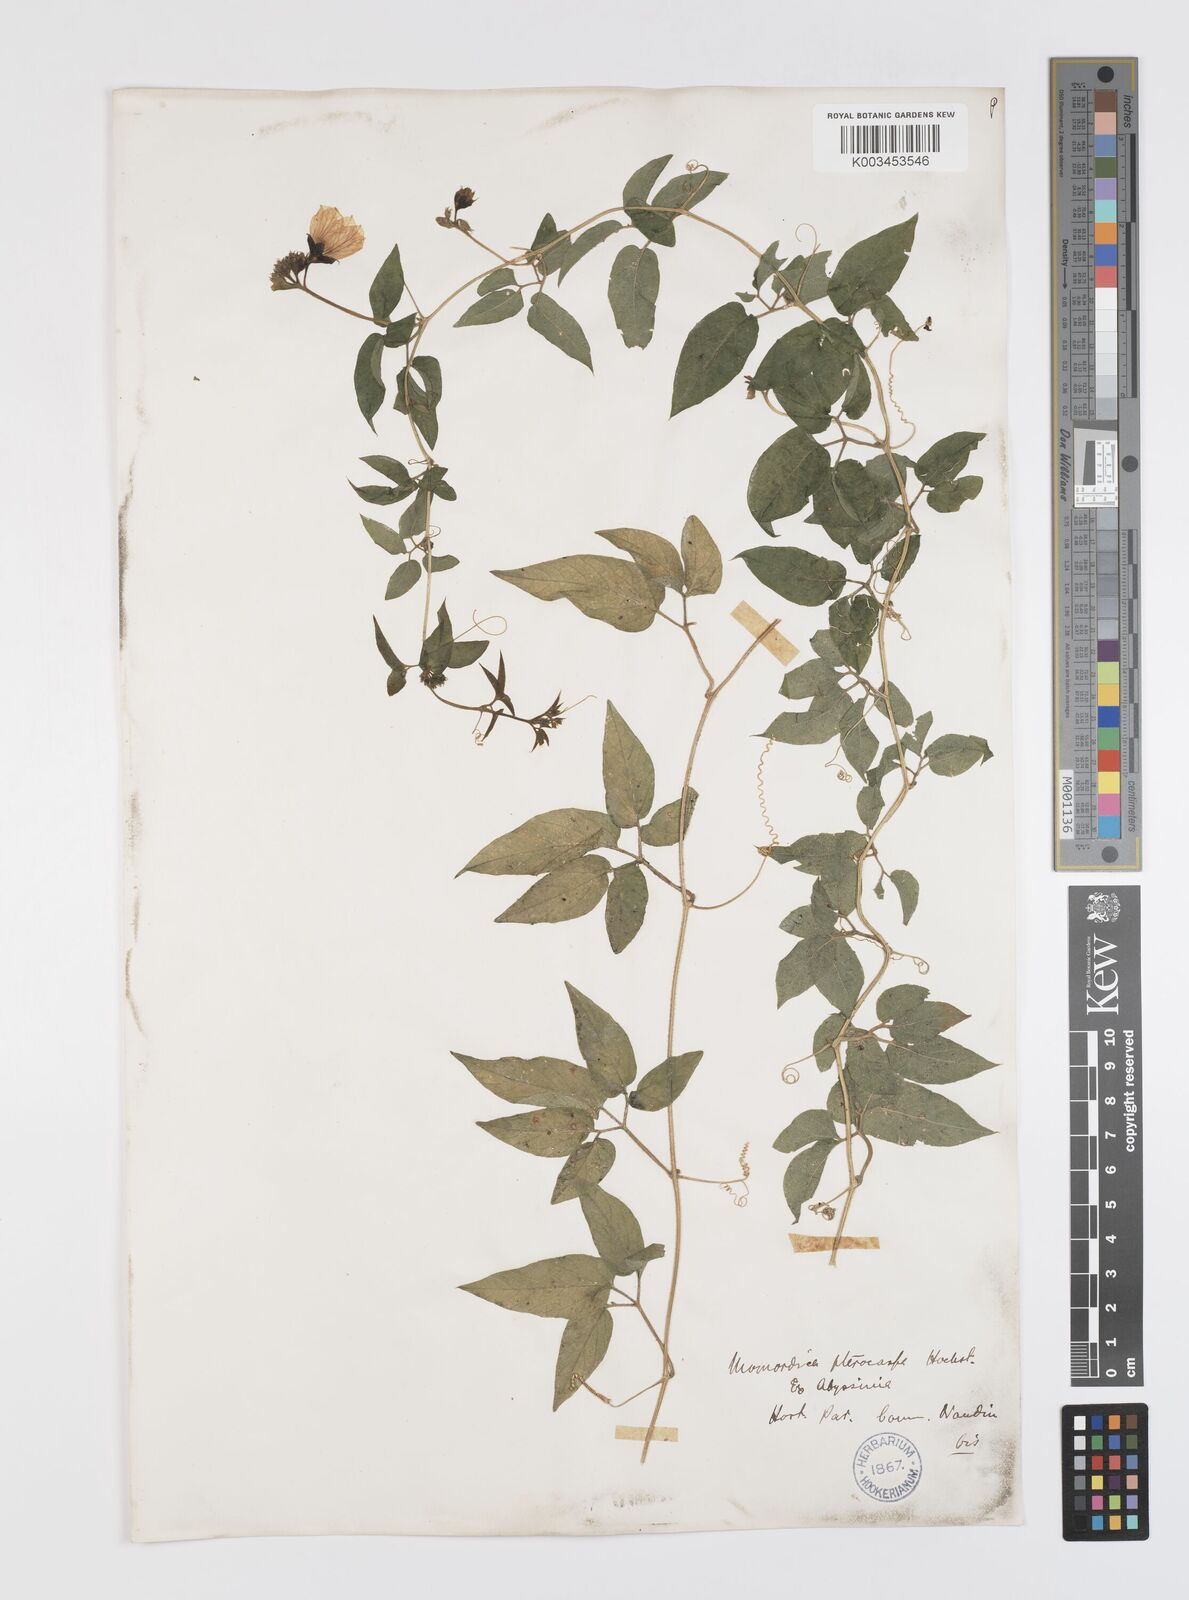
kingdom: Plantae
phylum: Tracheophyta
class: Magnoliopsida
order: Cucurbitales
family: Cucurbitaceae
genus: Momordica
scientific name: Momordica pterocarpa
